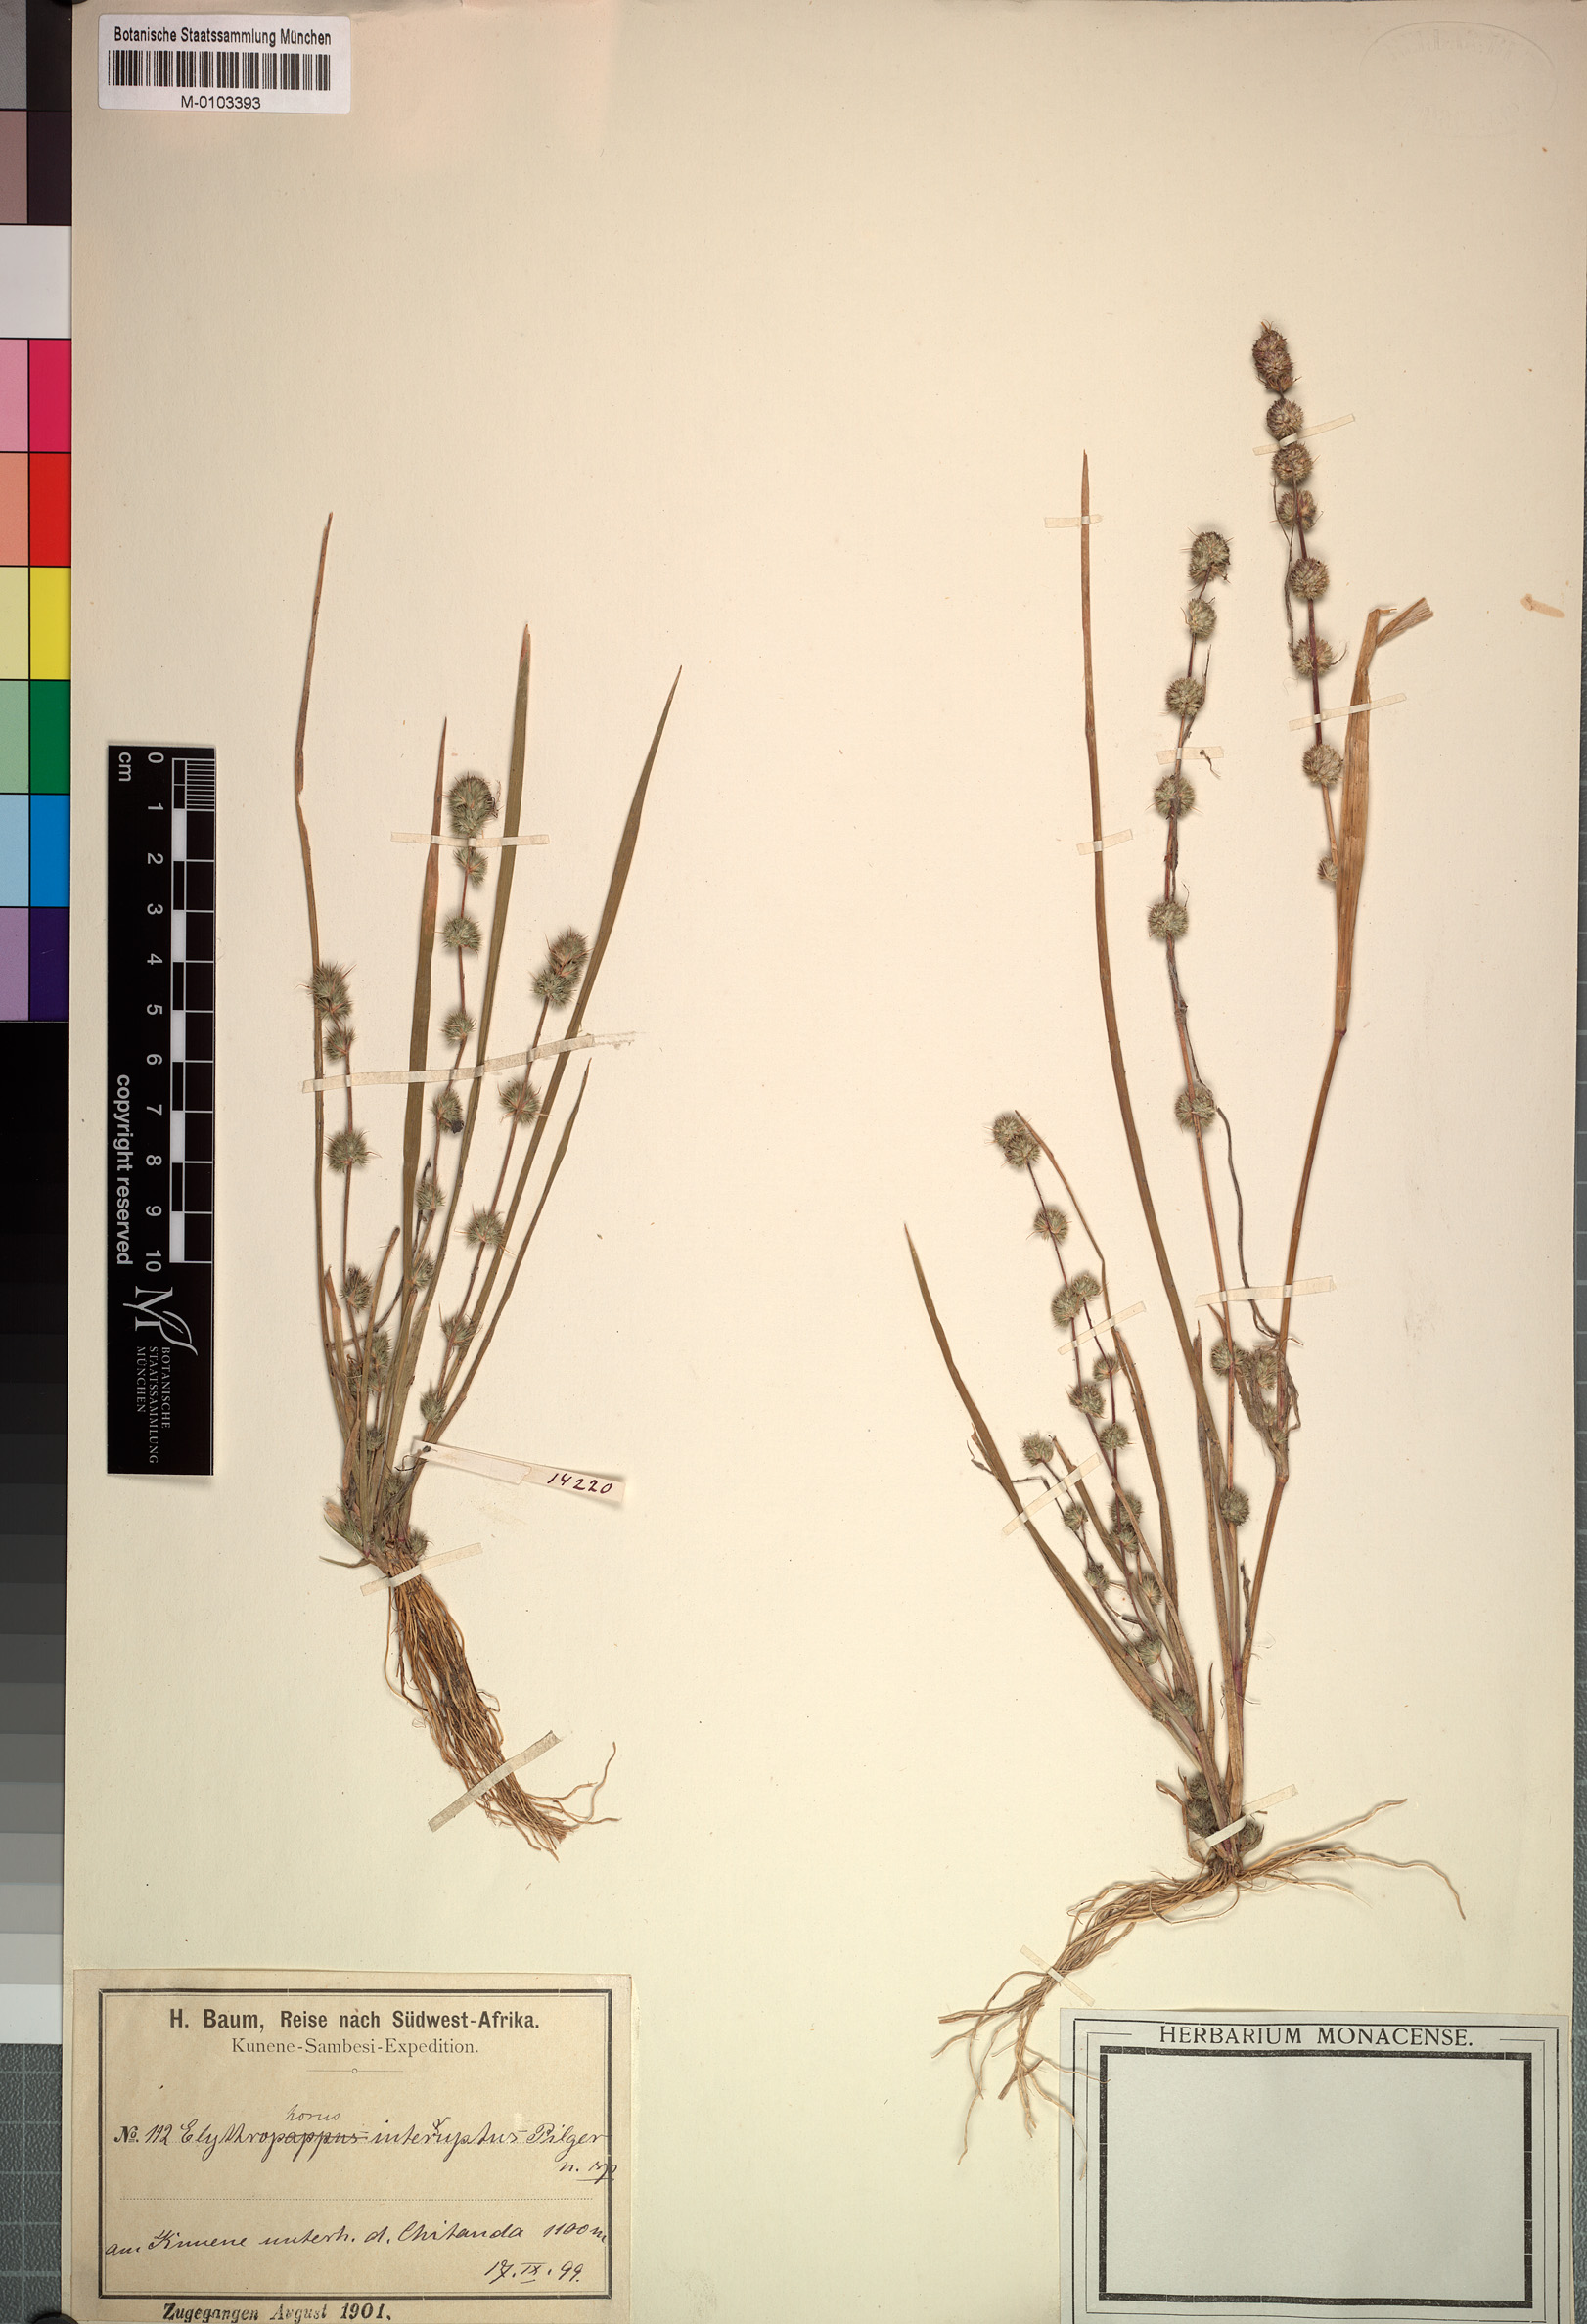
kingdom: Plantae
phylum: Tracheophyta
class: Liliopsida
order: Poales
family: Poaceae
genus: Elytrophorus
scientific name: Elytrophorus globularis
